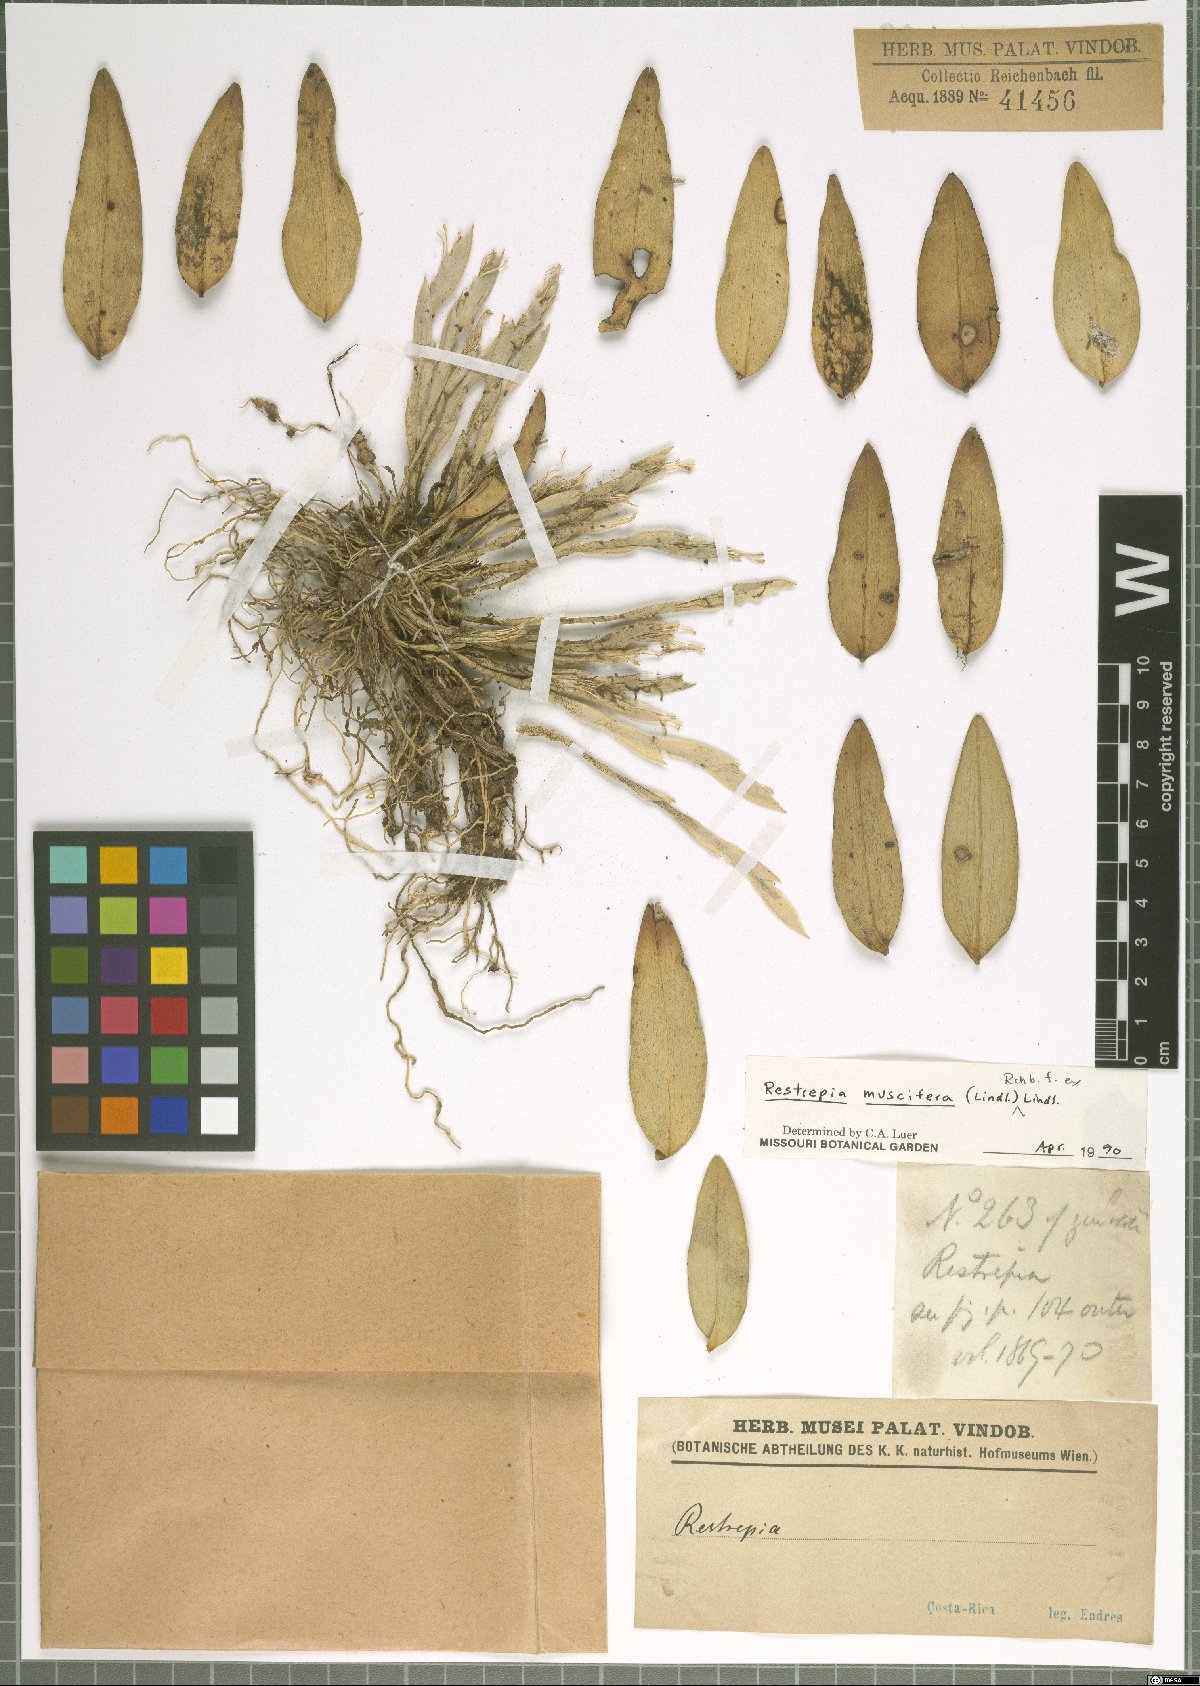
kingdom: Plantae
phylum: Tracheophyta
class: Liliopsida
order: Asparagales
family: Orchidaceae
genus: Restrepia
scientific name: Restrepia muscifera
